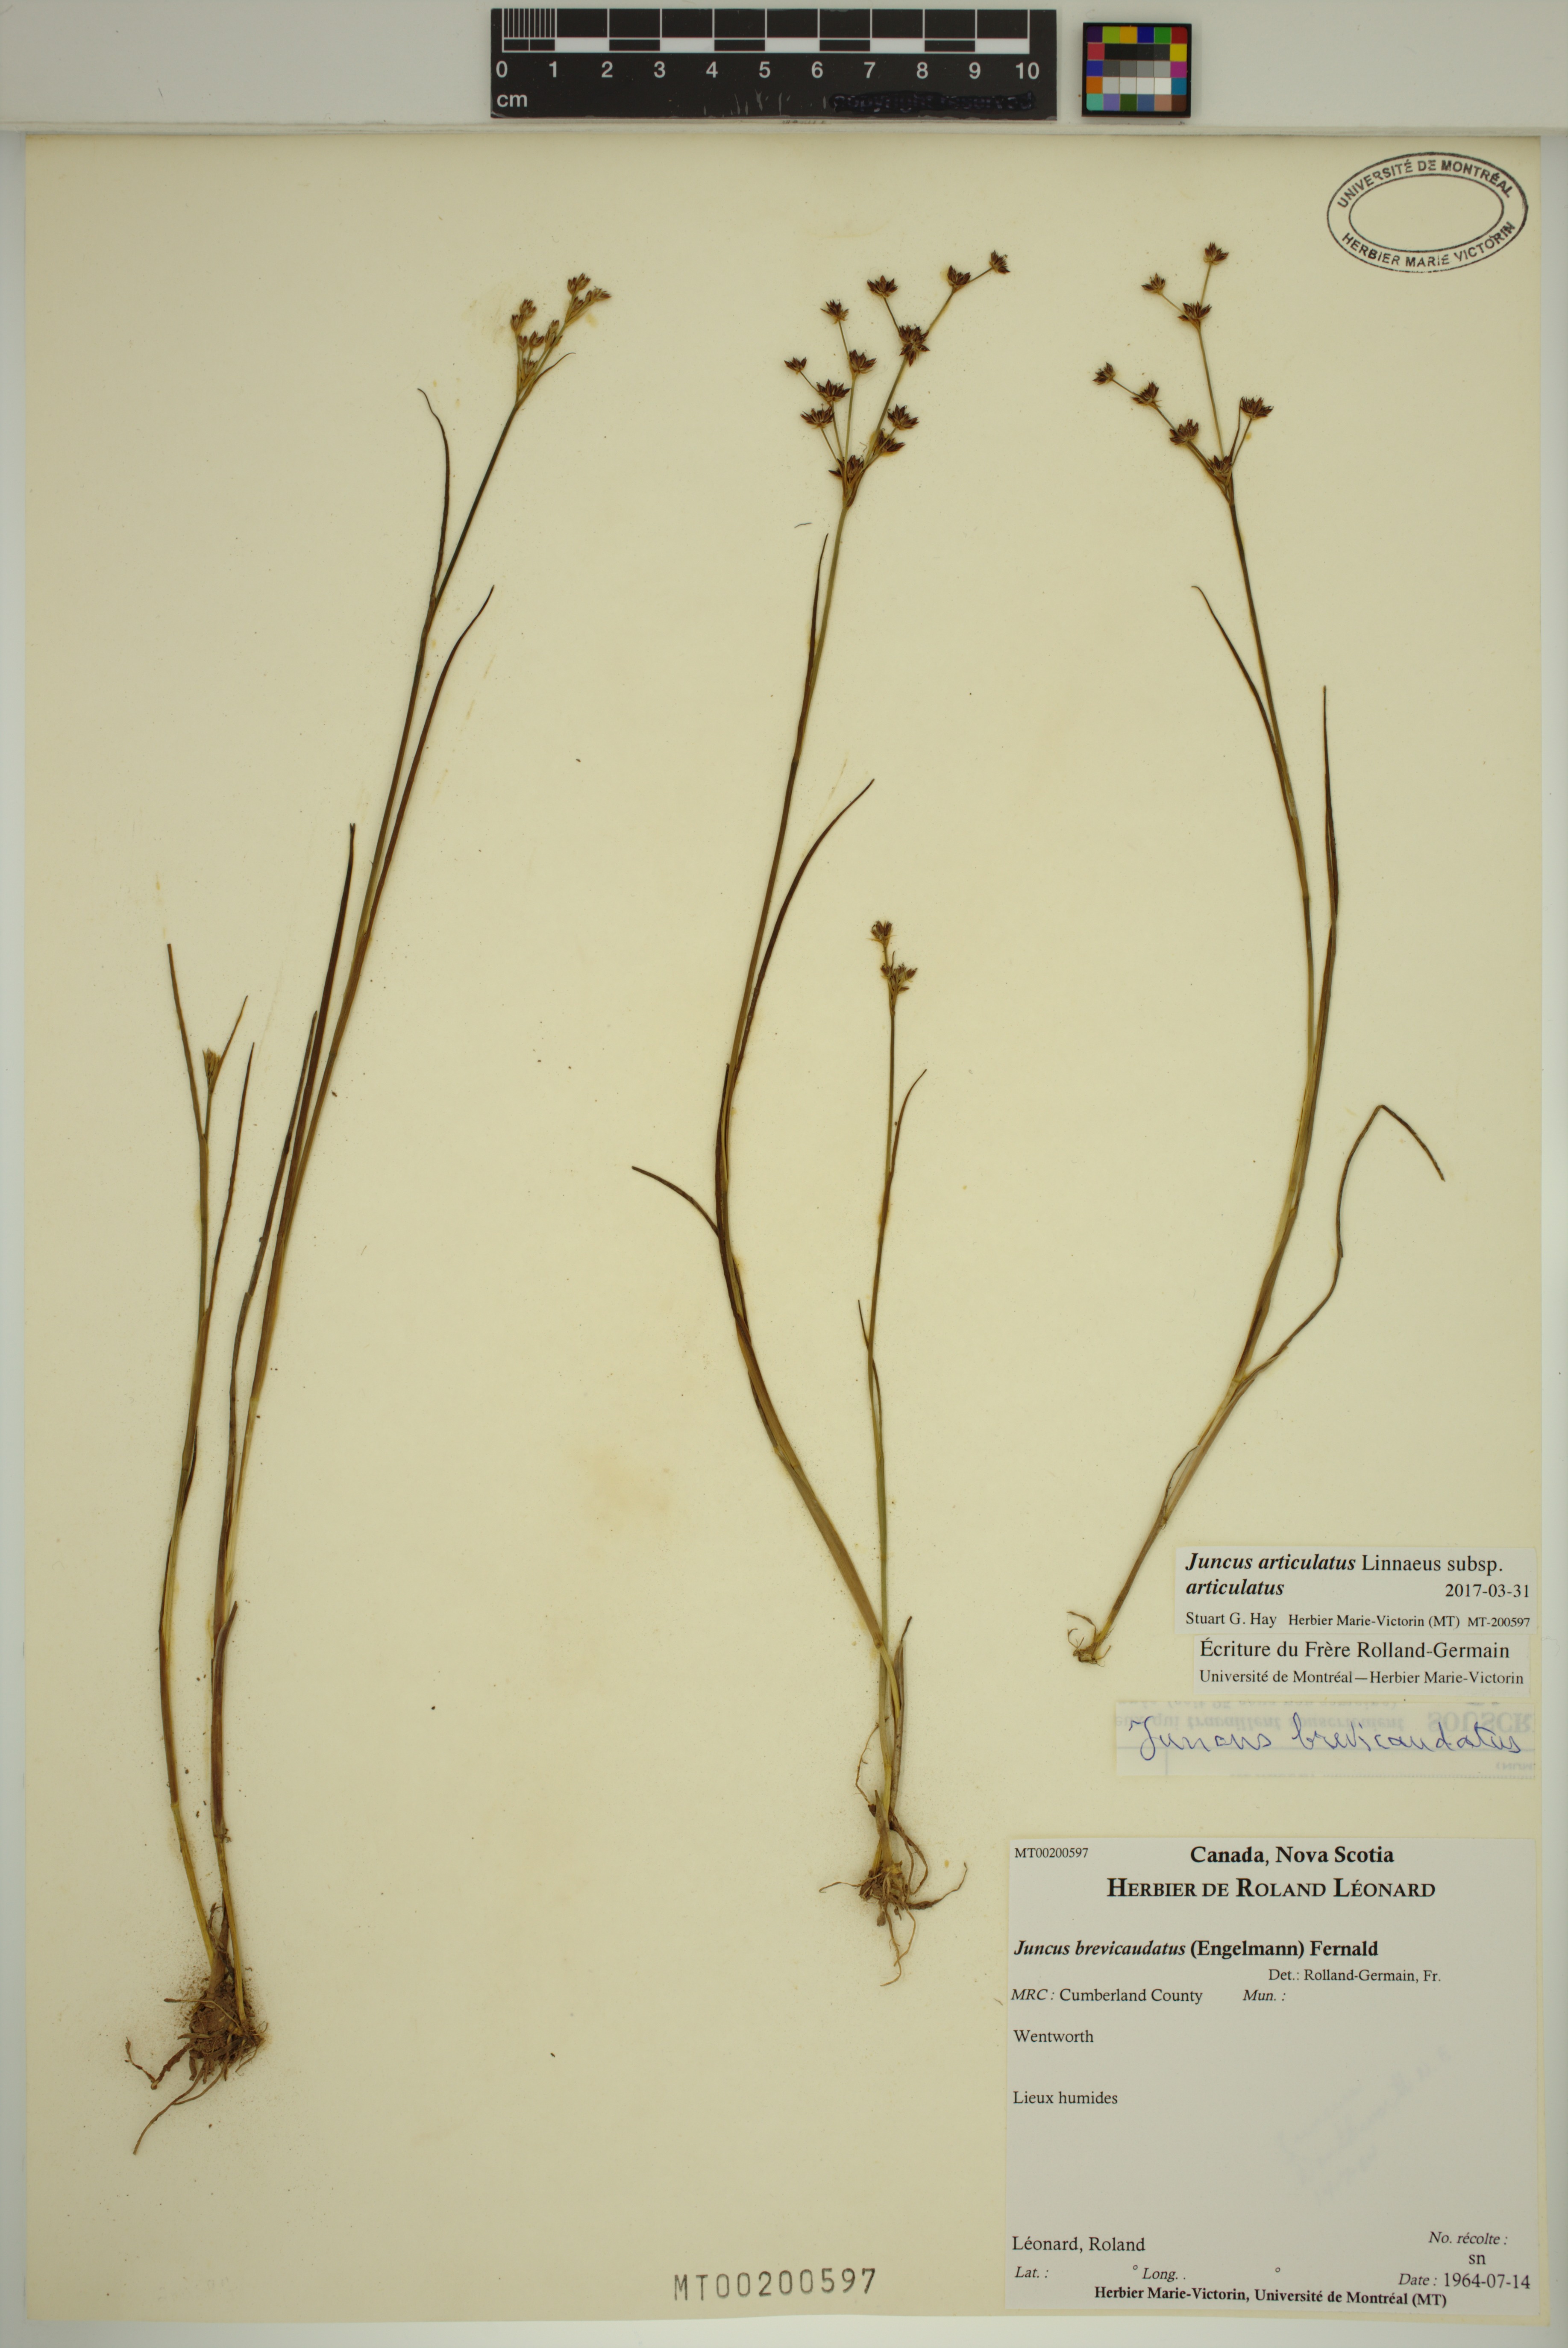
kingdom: Plantae
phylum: Tracheophyta
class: Liliopsida
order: Poales
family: Juncaceae
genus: Juncus
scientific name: Juncus articulatus
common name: Jointed rush
